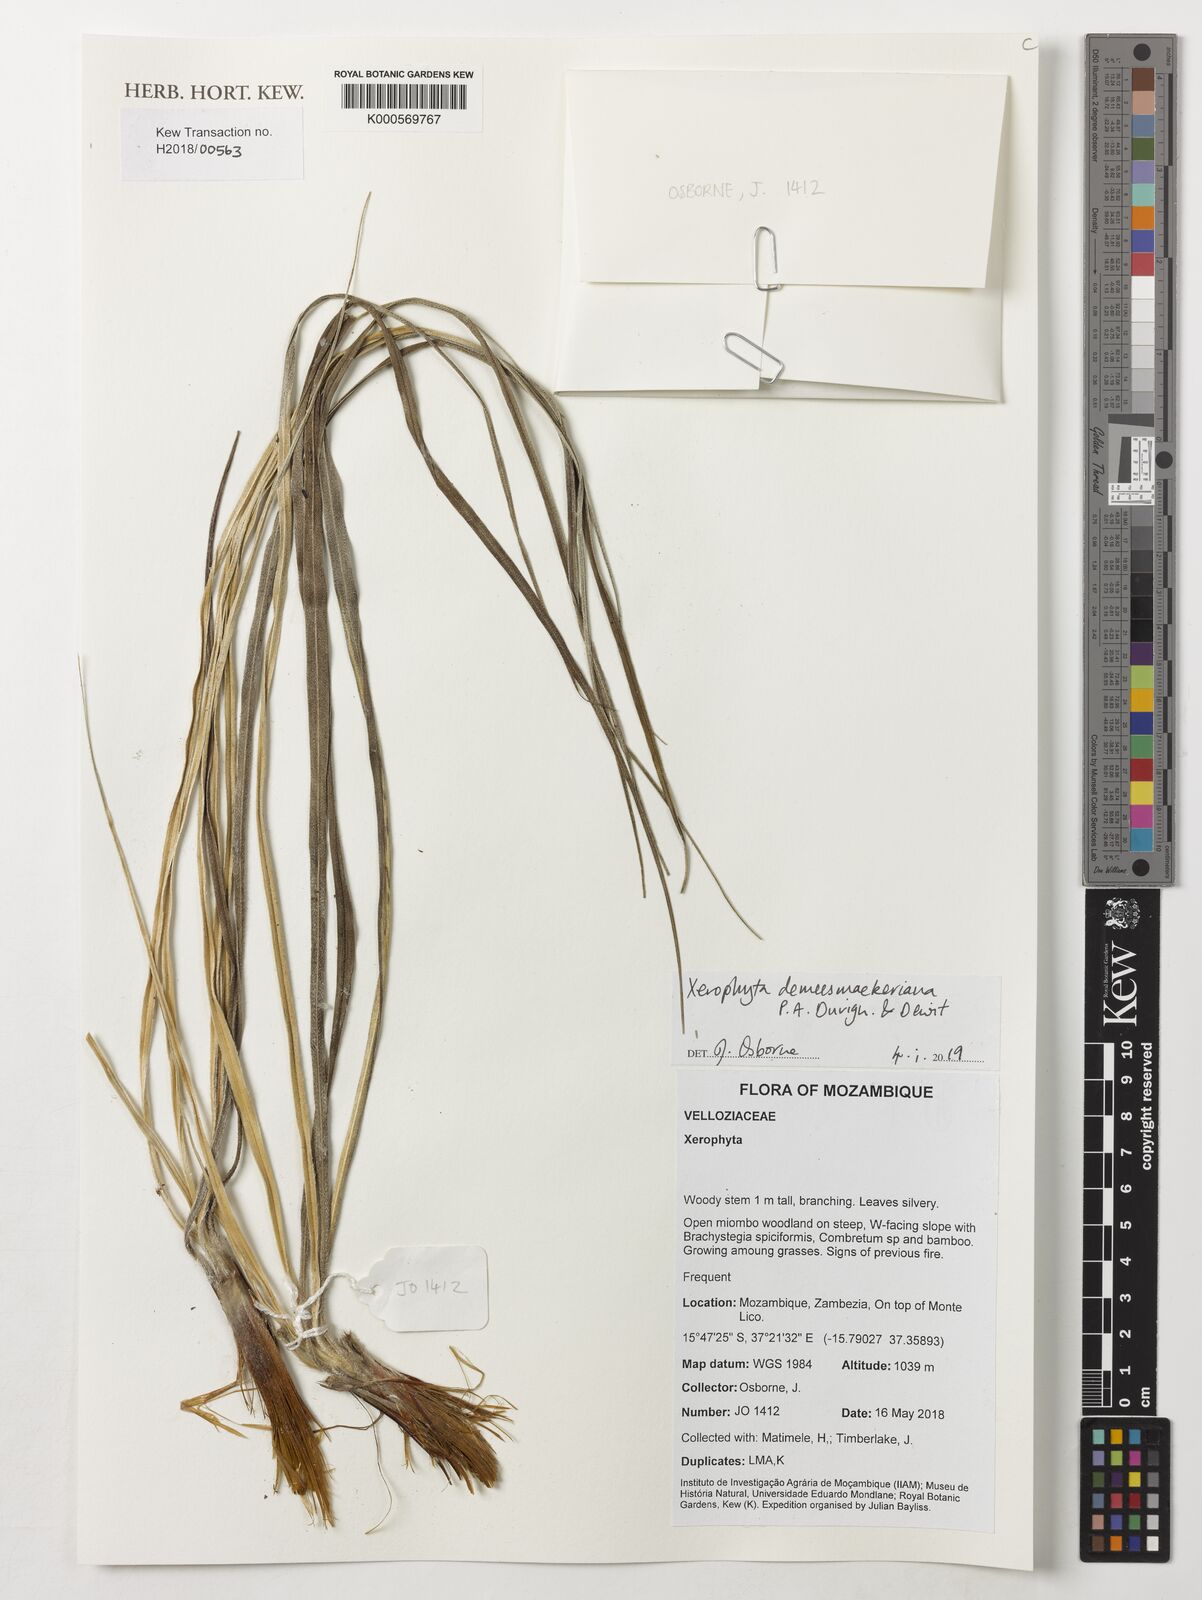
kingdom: Plantae
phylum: Tracheophyta
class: Liliopsida
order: Pandanales
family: Velloziaceae
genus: Xerophyta
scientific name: Xerophyta demeesmaekeriana
